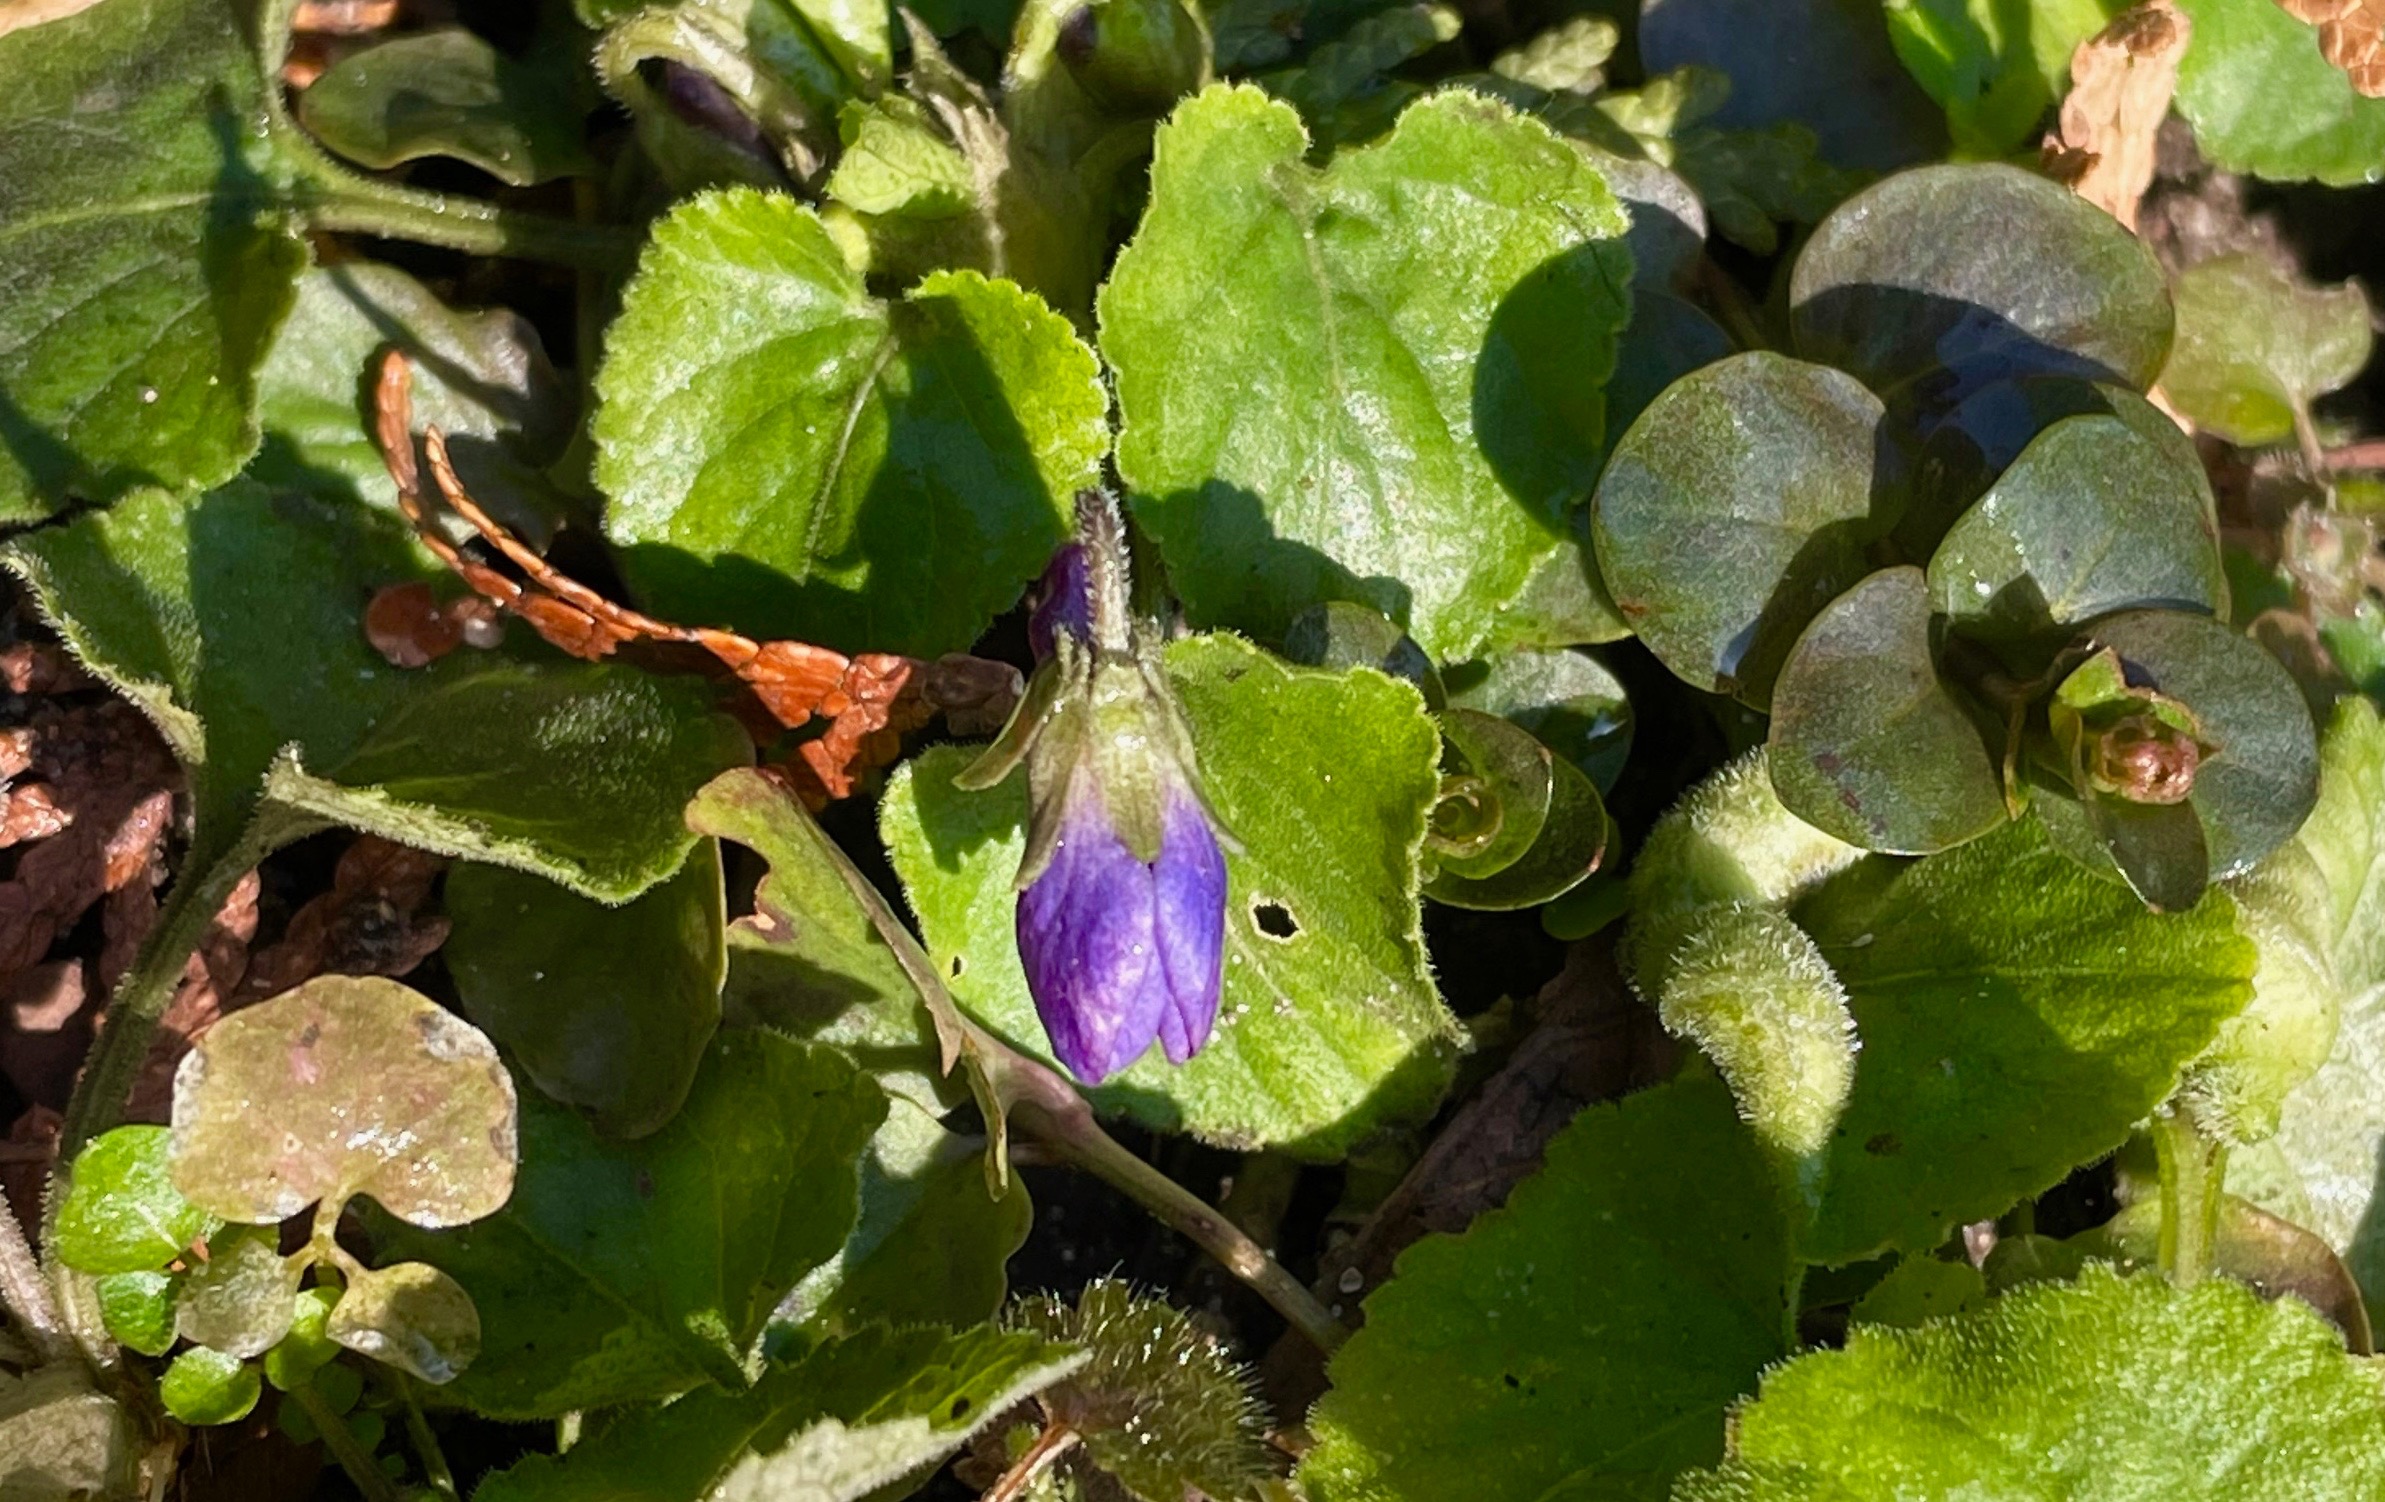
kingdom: Plantae
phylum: Tracheophyta
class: Magnoliopsida
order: Malpighiales
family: Violaceae
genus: Viola
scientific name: Viola odorata
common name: Marts-viol
